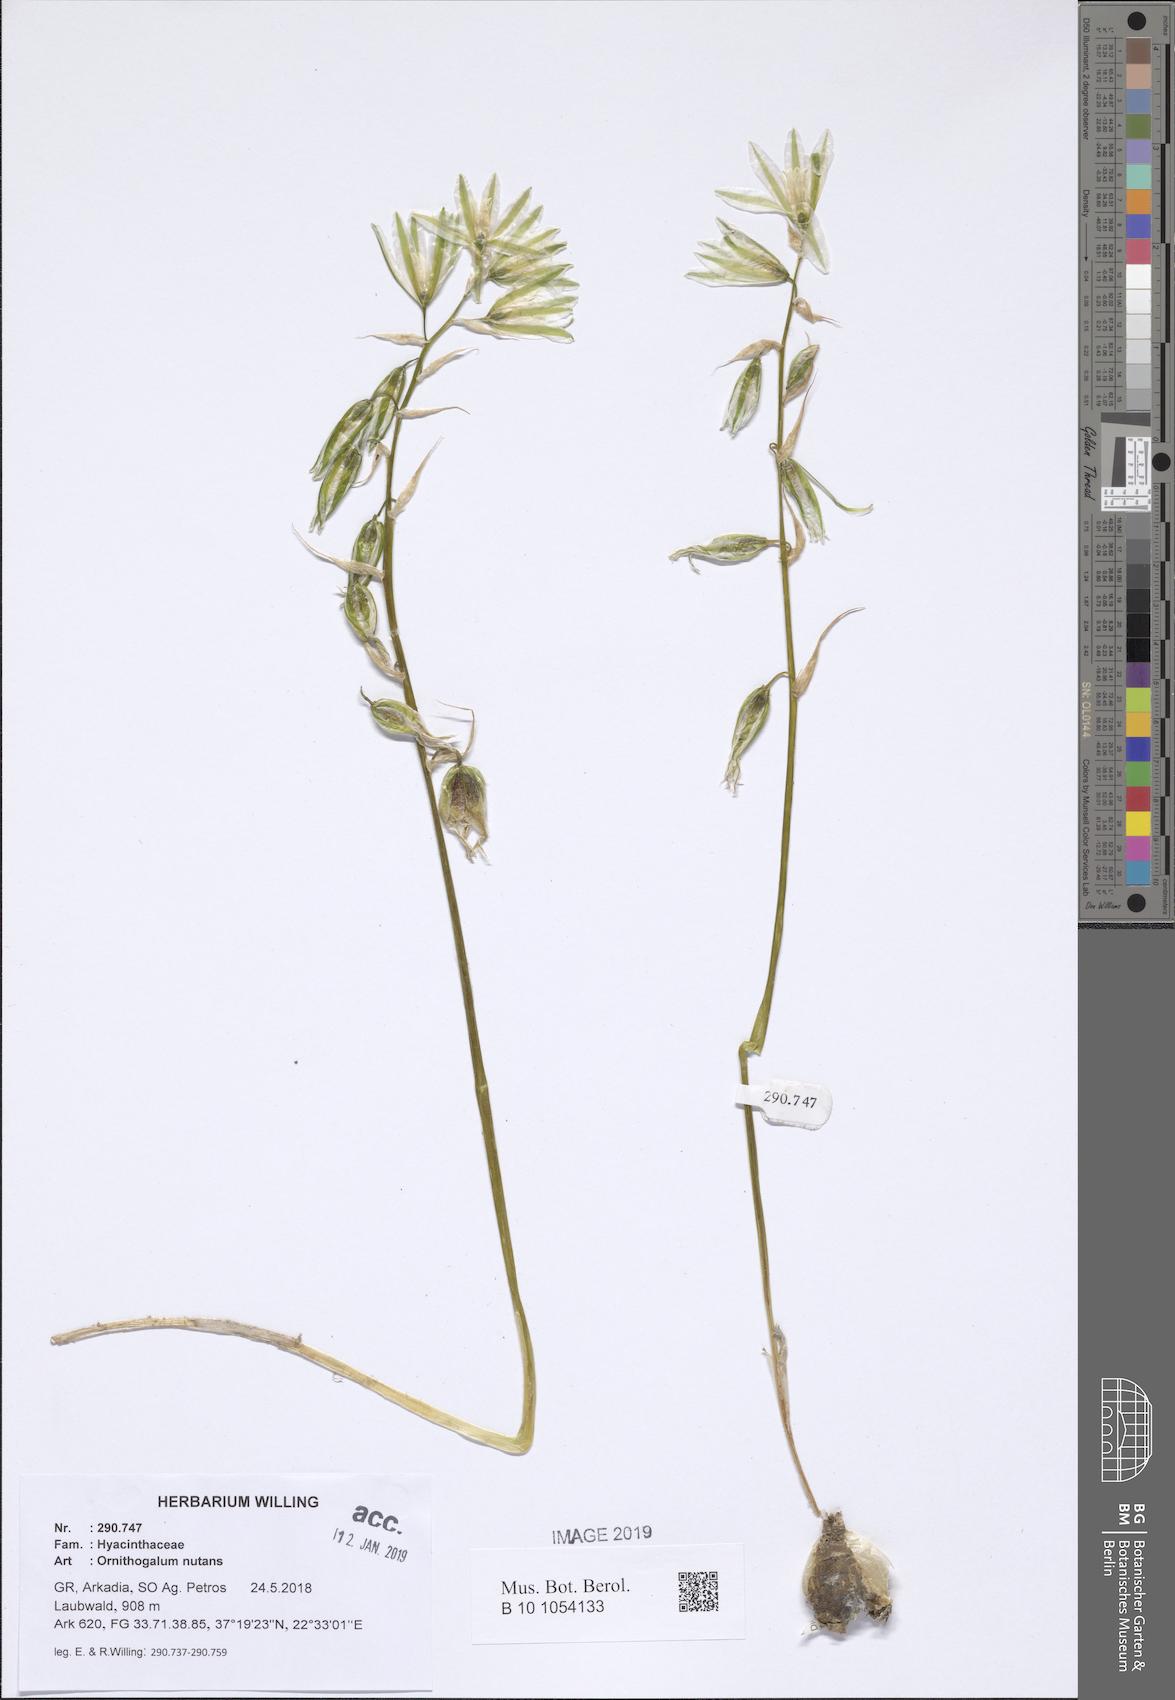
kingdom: Plantae
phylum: Tracheophyta
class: Liliopsida
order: Asparagales
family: Asparagaceae
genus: Ornithogalum
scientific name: Ornithogalum nutans
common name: Drooping star-of-bethlehem
